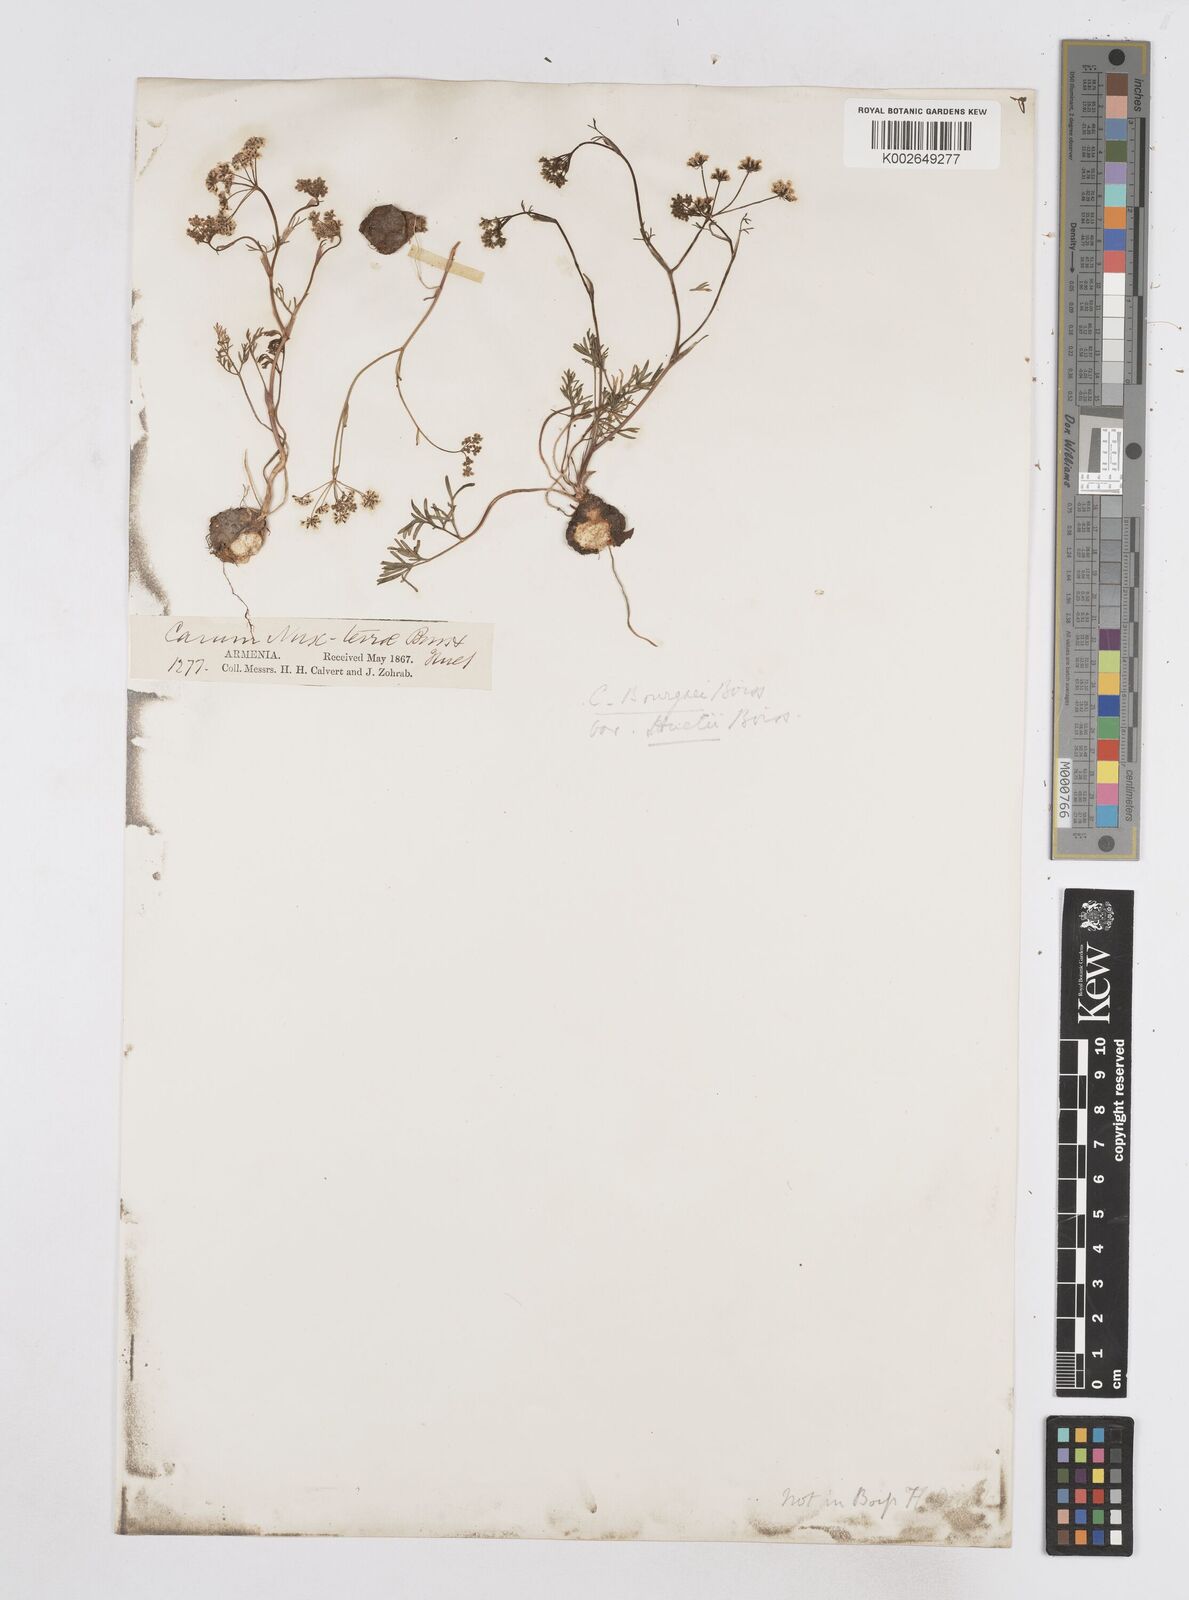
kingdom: Plantae
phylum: Tracheophyta
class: Magnoliopsida
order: Apiales
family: Apiaceae
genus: Bunium
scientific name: Bunium bourgaei
